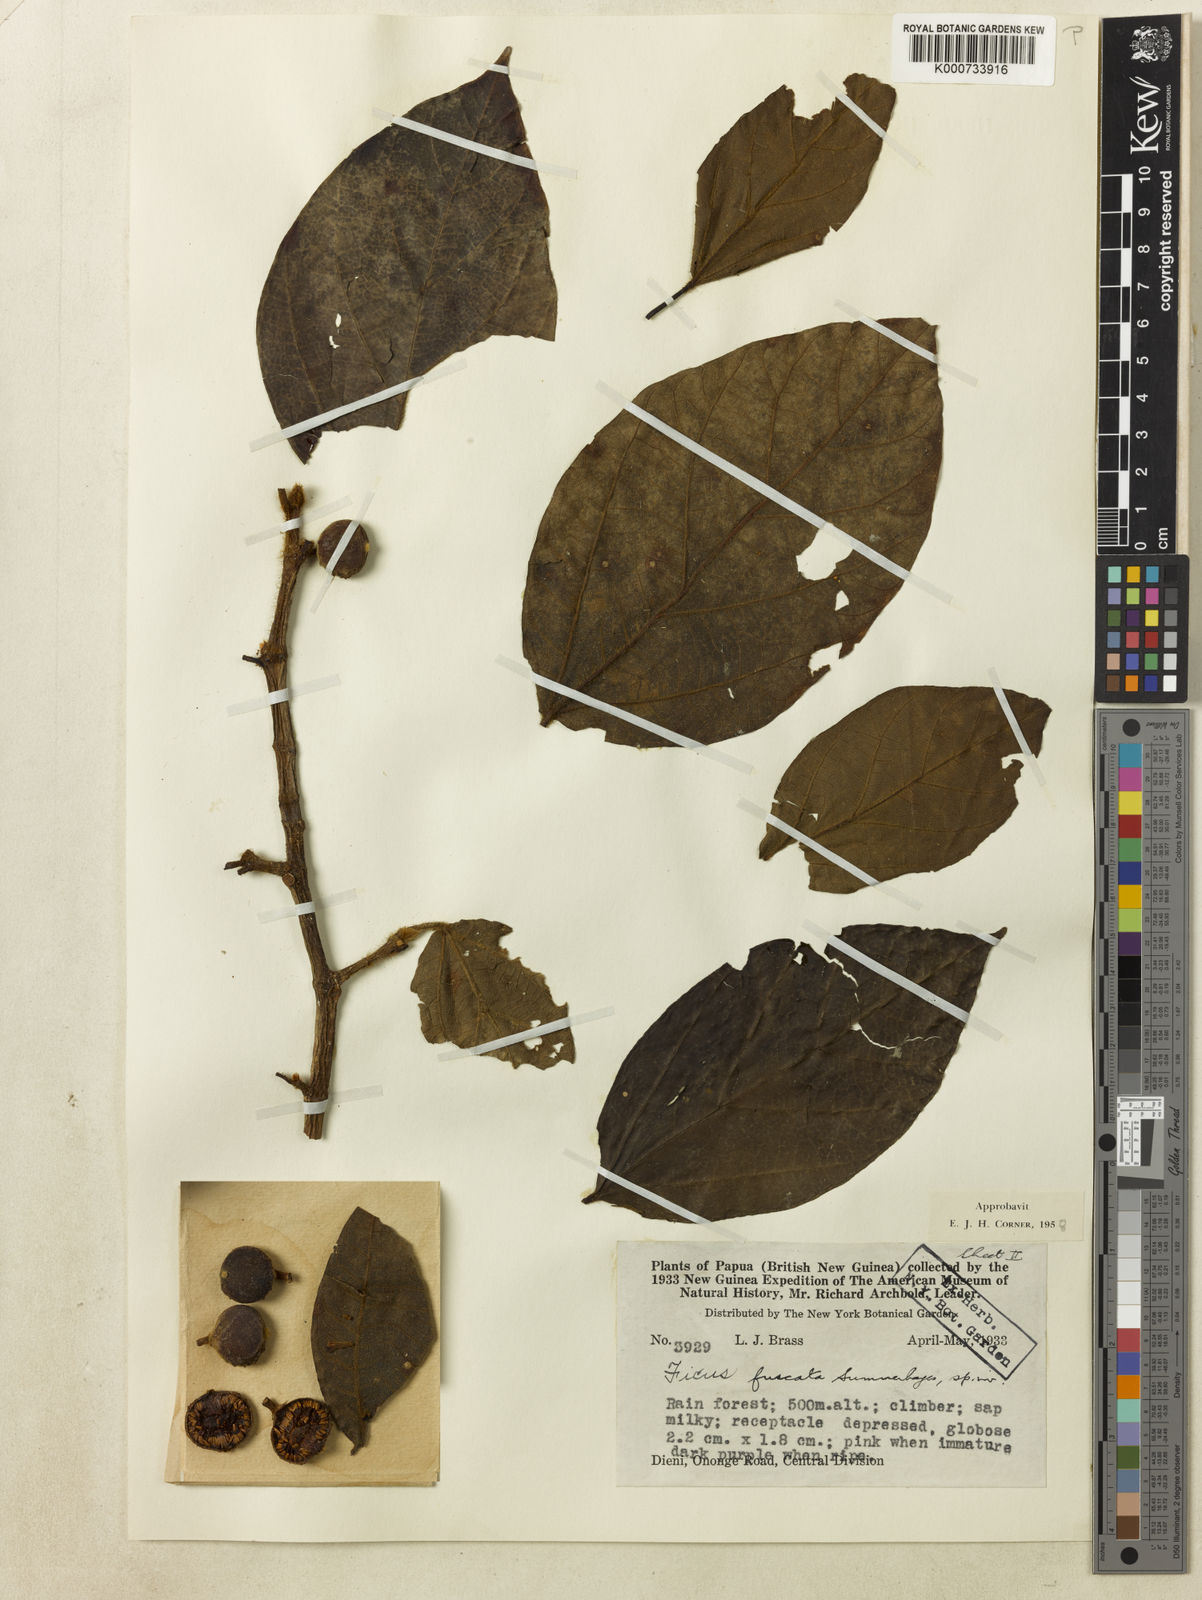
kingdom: Plantae
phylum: Tracheophyta
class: Magnoliopsida
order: Rosales
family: Moraceae
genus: Ficus
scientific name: Ficus fuscata
